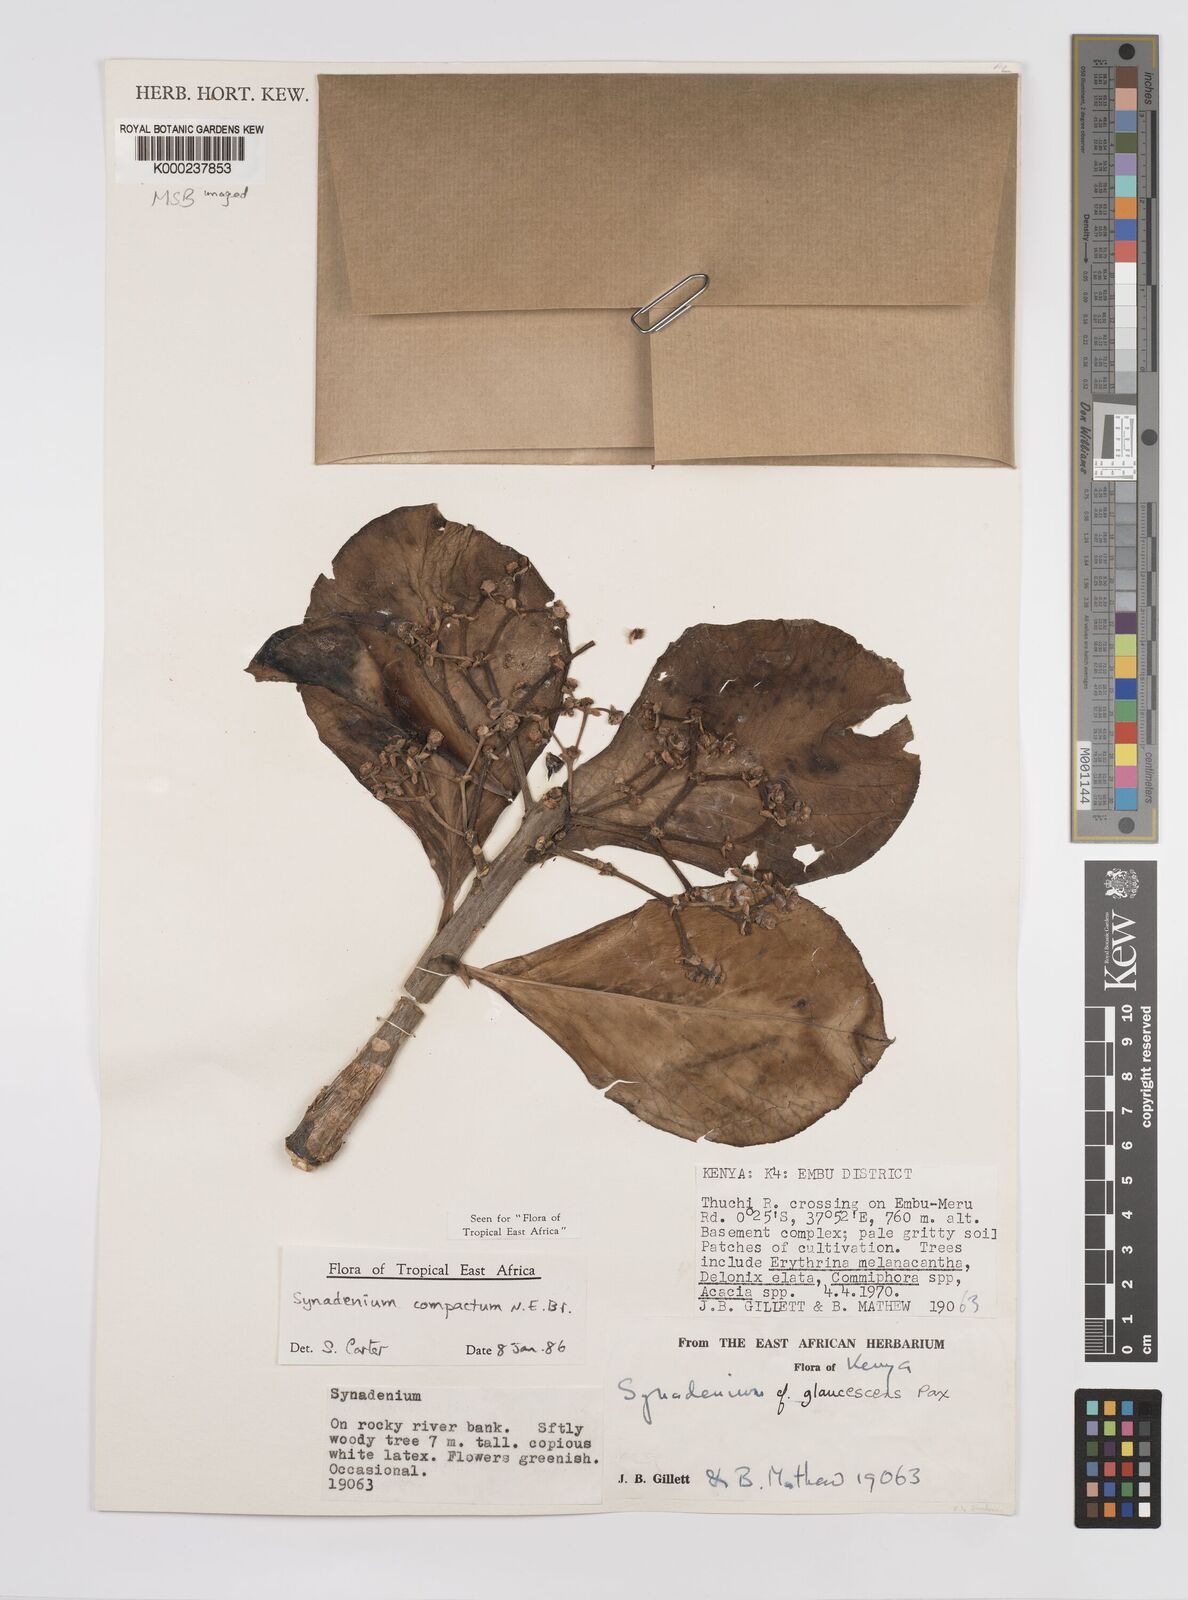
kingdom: Plantae
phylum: Tracheophyta
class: Magnoliopsida
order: Malpighiales
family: Euphorbiaceae
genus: Euphorbia
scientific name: Euphorbia bicompacta
